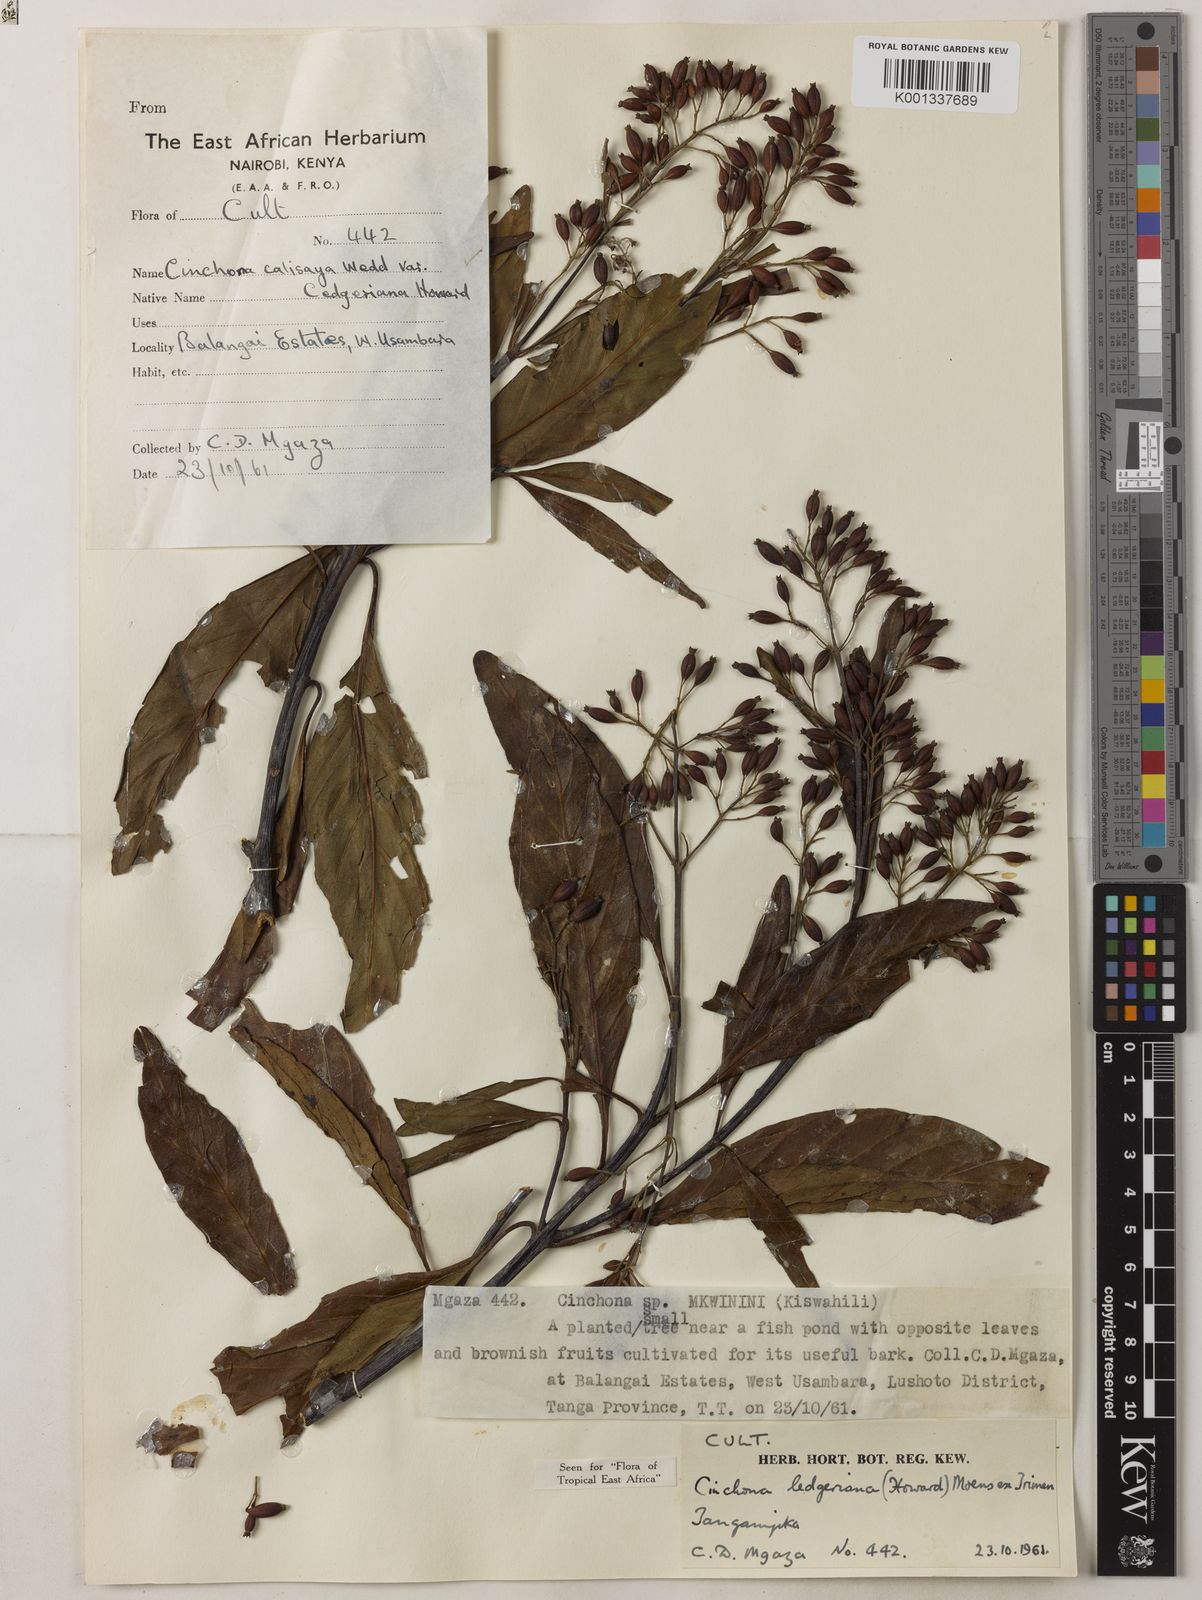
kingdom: Plantae
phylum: Tracheophyta
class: Magnoliopsida
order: Gentianales
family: Rubiaceae
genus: Cinchona
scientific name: Cinchona calisaya
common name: Ledgerbark
